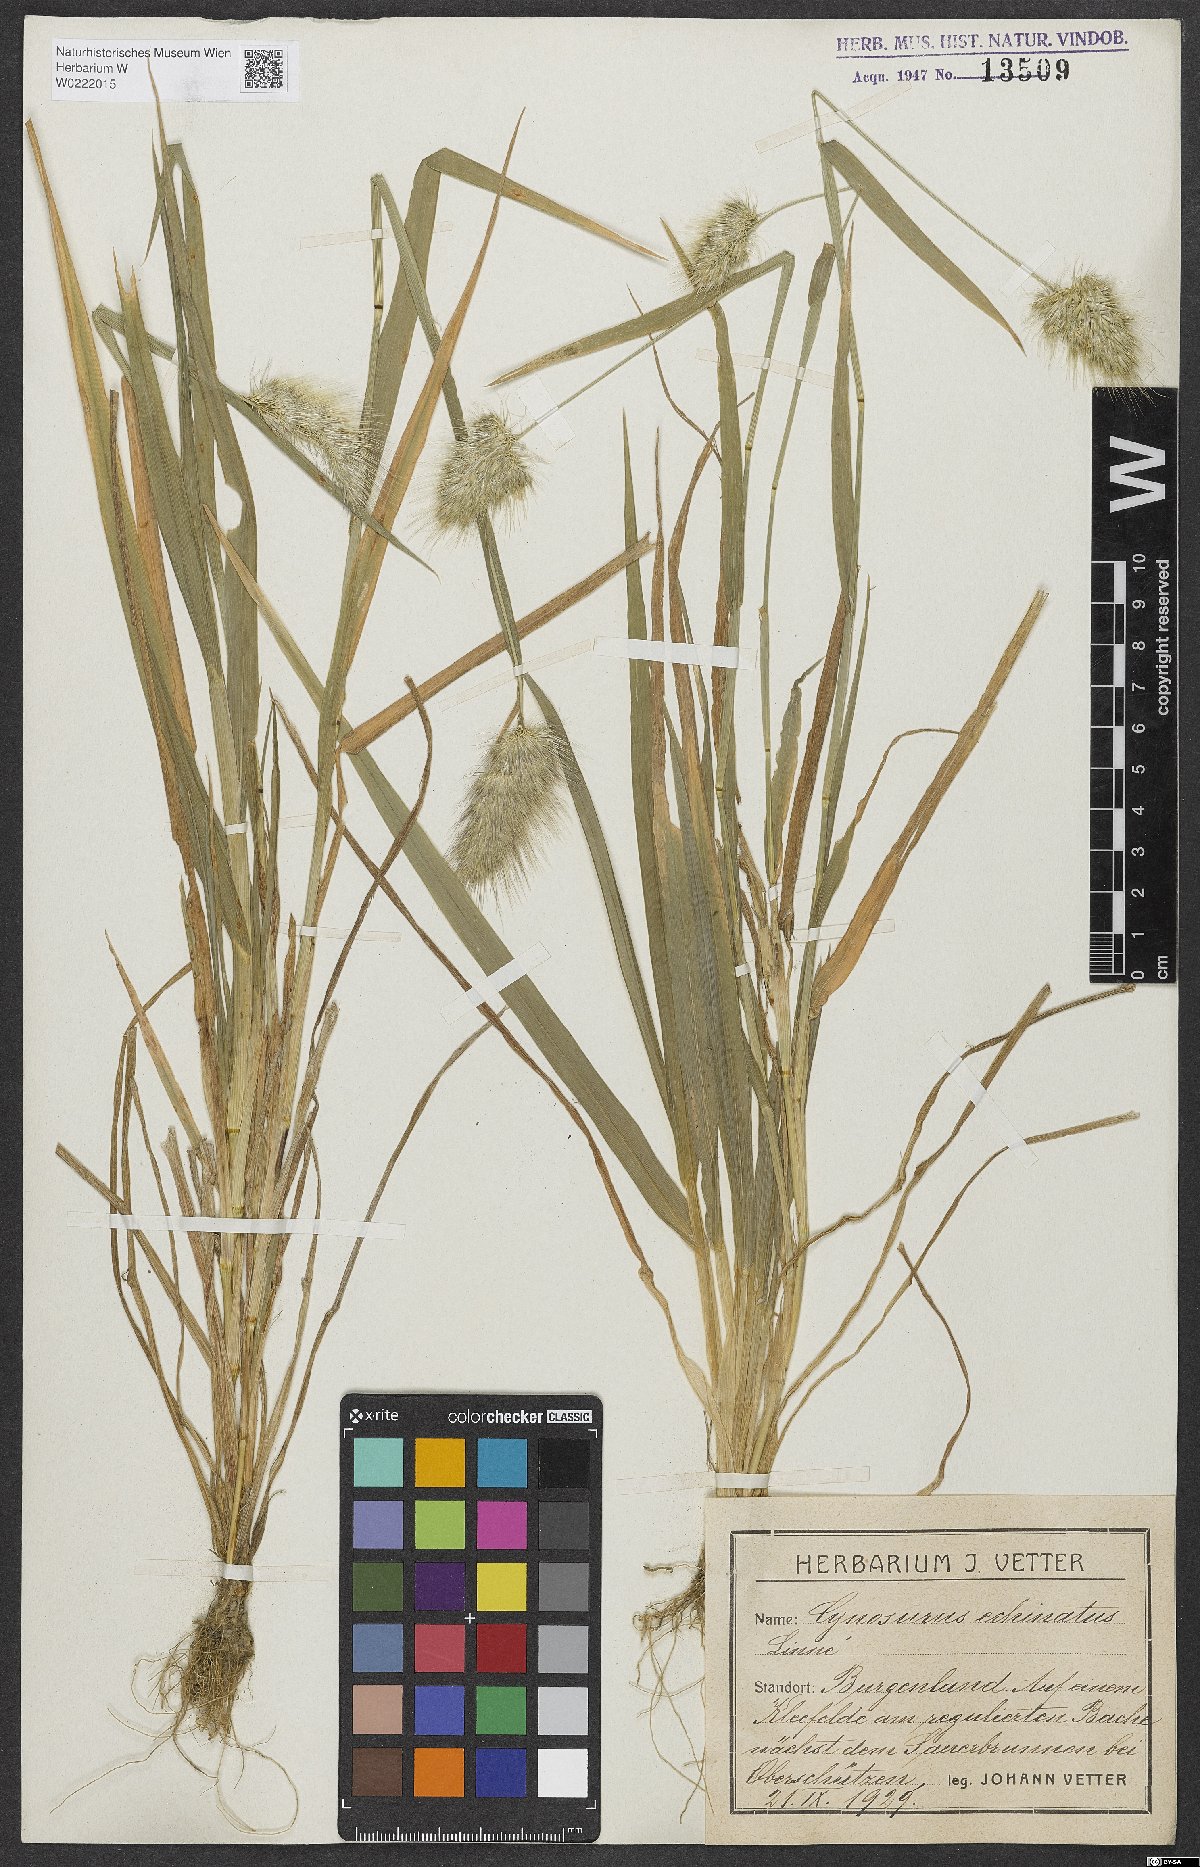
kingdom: Plantae
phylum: Tracheophyta
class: Liliopsida
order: Poales
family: Poaceae
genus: Cynosurus
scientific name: Cynosurus echinatus
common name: Rough dog's-tail
